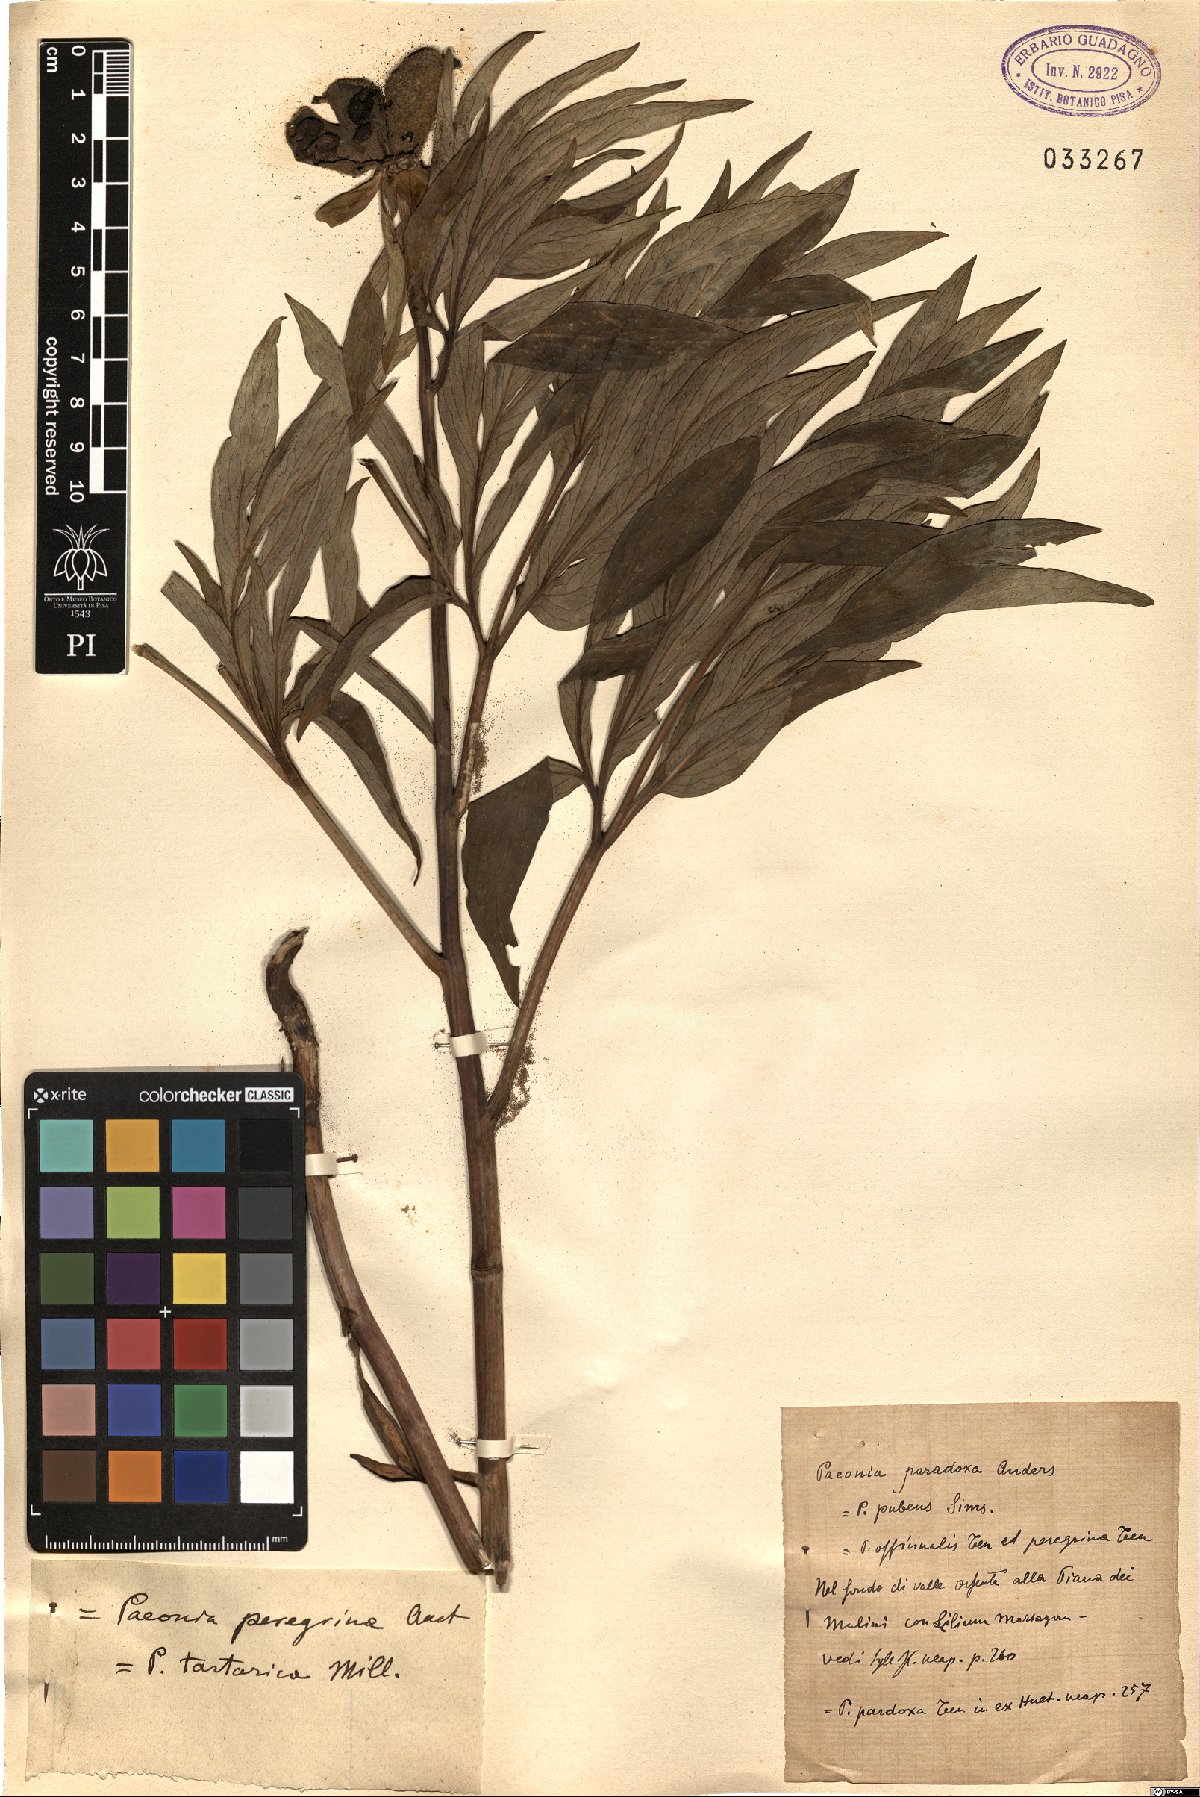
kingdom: Plantae
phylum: Tracheophyta
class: Magnoliopsida
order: Saxifragales
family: Paeoniaceae
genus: Paeonia
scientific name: Paeonia officinalis
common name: Common peony
